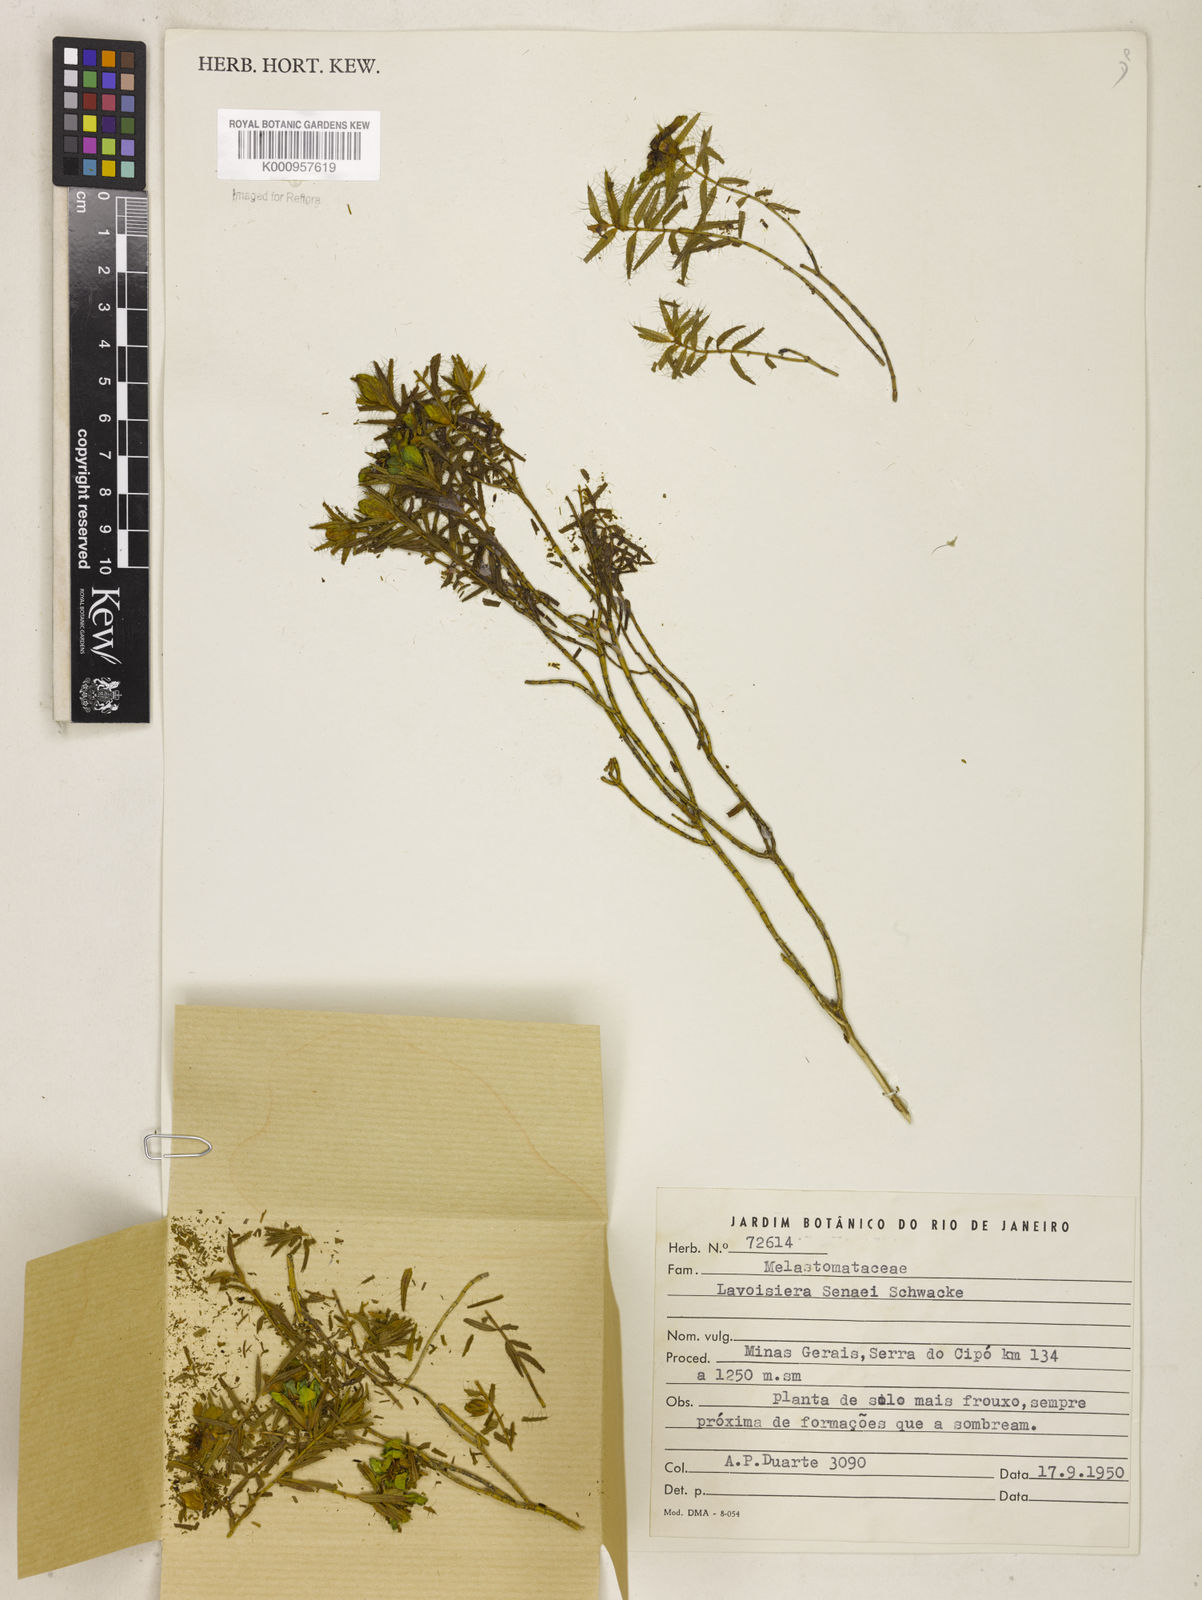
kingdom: Plantae
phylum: Tracheophyta
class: Magnoliopsida
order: Myrtales
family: Melastomataceae
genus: Microlicia
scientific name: Microlicia
